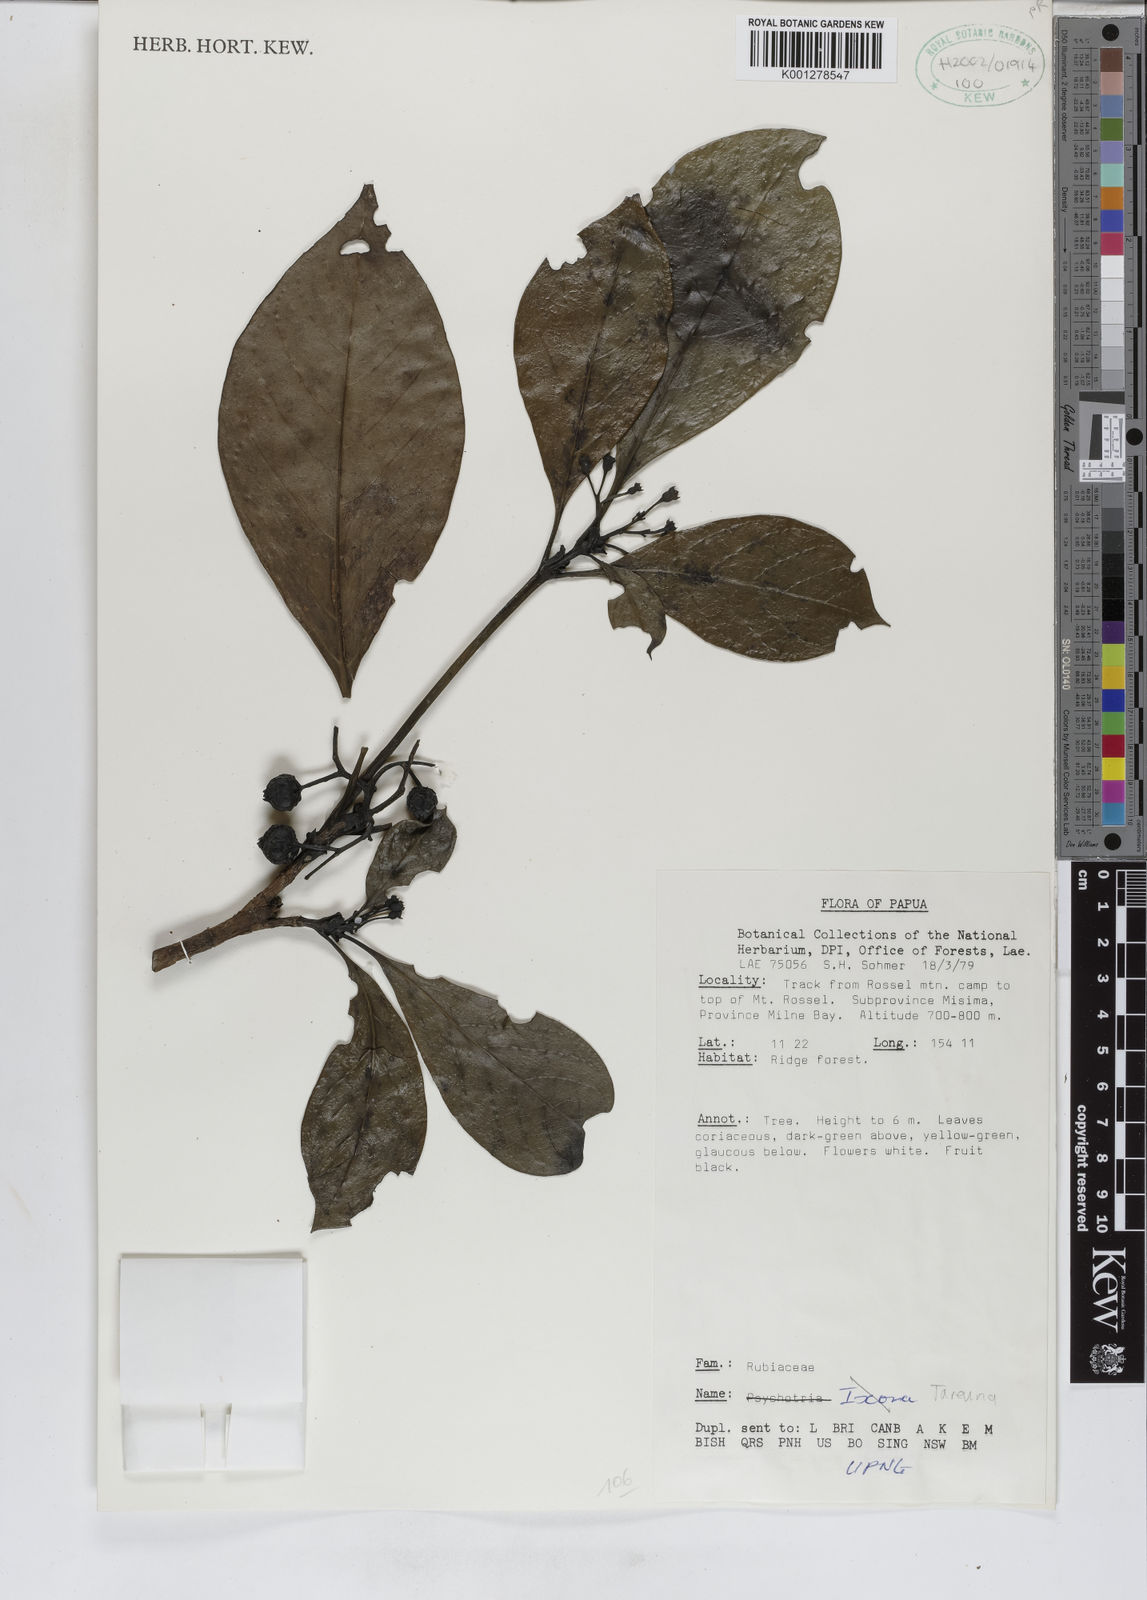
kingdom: Plantae
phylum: Tracheophyta
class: Magnoliopsida
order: Gentianales
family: Rubiaceae
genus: Tarenna
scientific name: Tarenna
